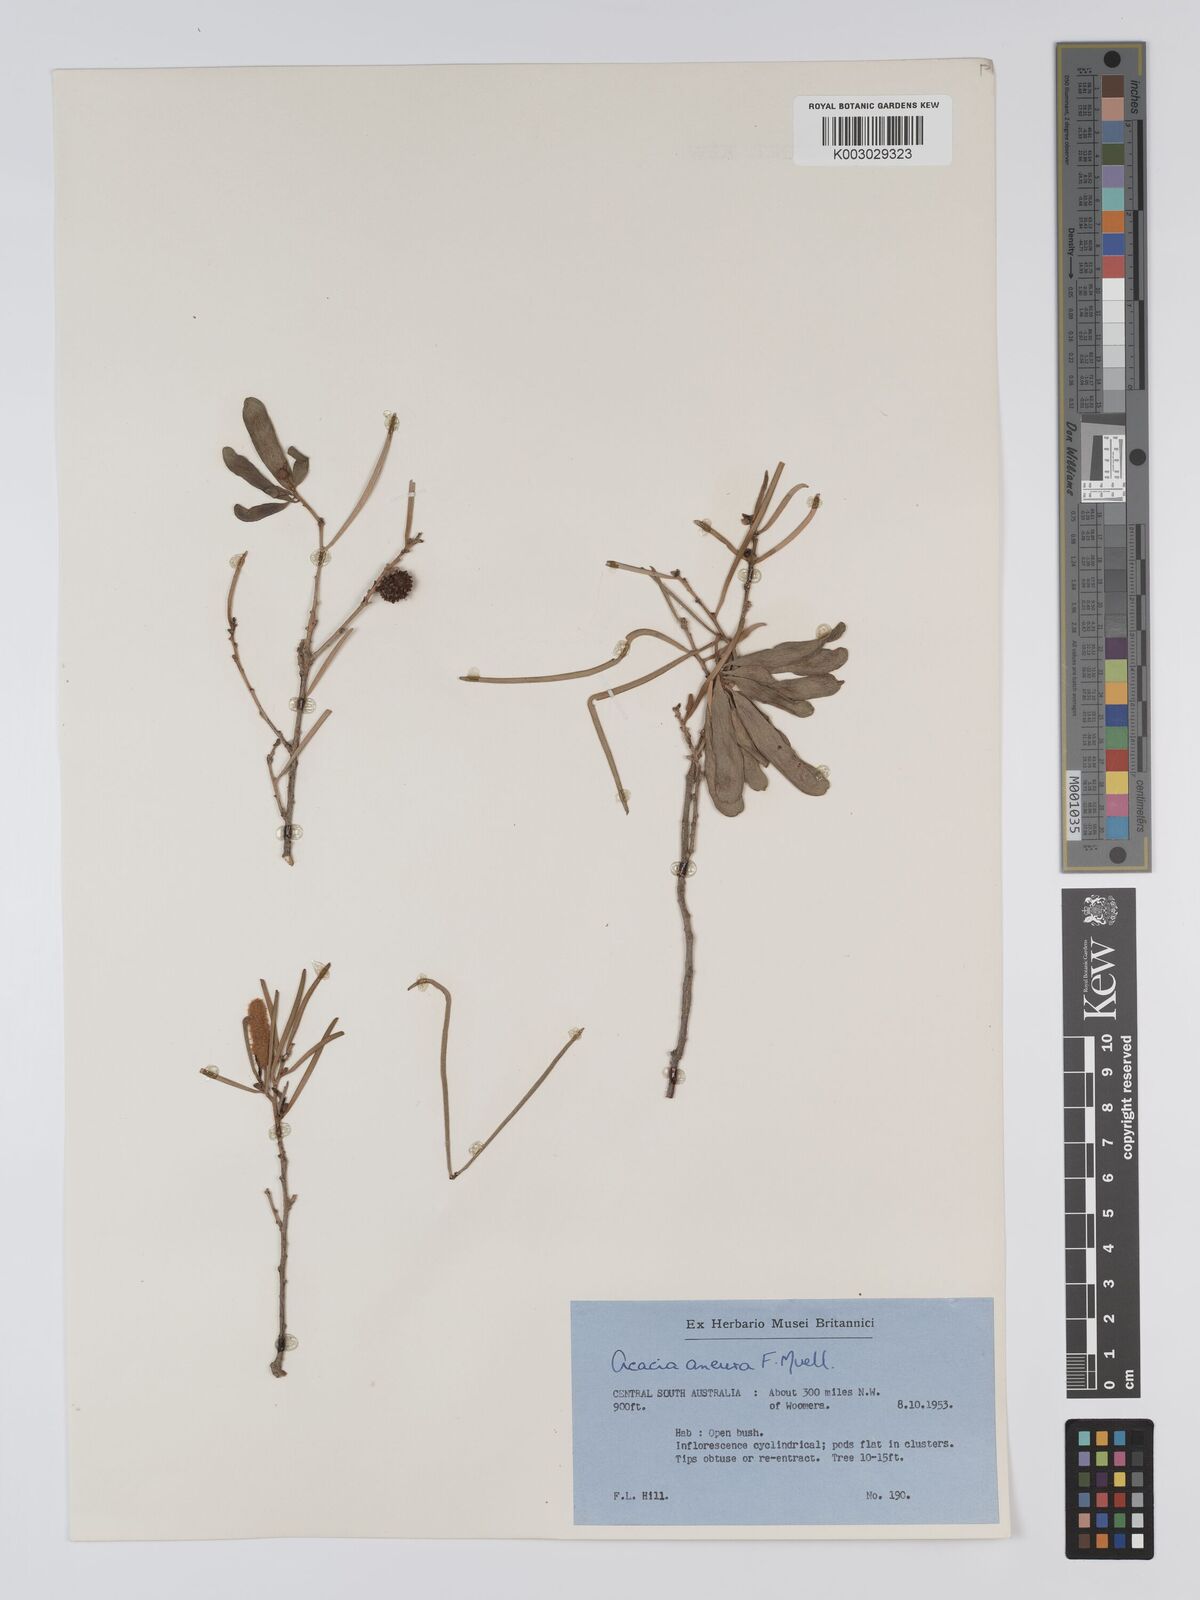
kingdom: Plantae
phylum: Tracheophyta
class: Magnoliopsida
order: Fabales
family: Fabaceae
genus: Acacia
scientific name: Acacia aneura
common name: Mulga
